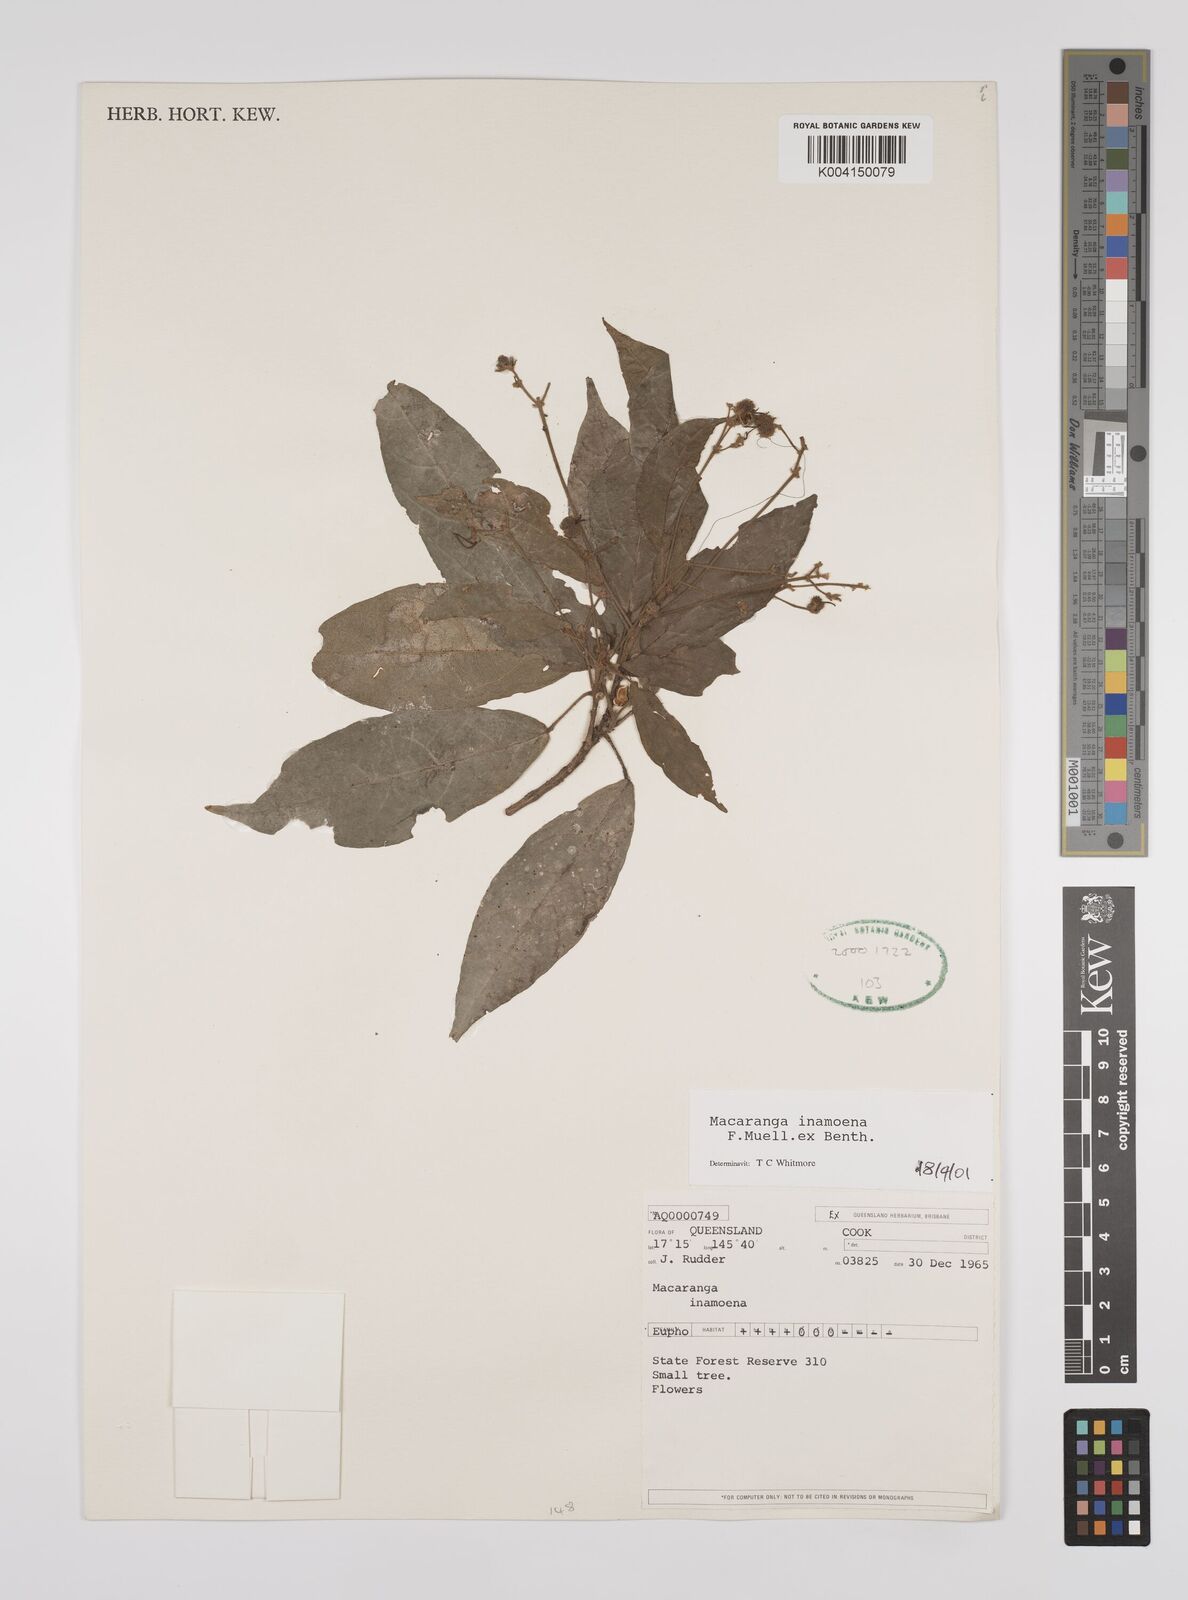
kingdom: Plantae
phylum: Tracheophyta
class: Magnoliopsida
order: Malpighiales
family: Euphorbiaceae
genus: Macaranga
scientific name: Macaranga inamoena
